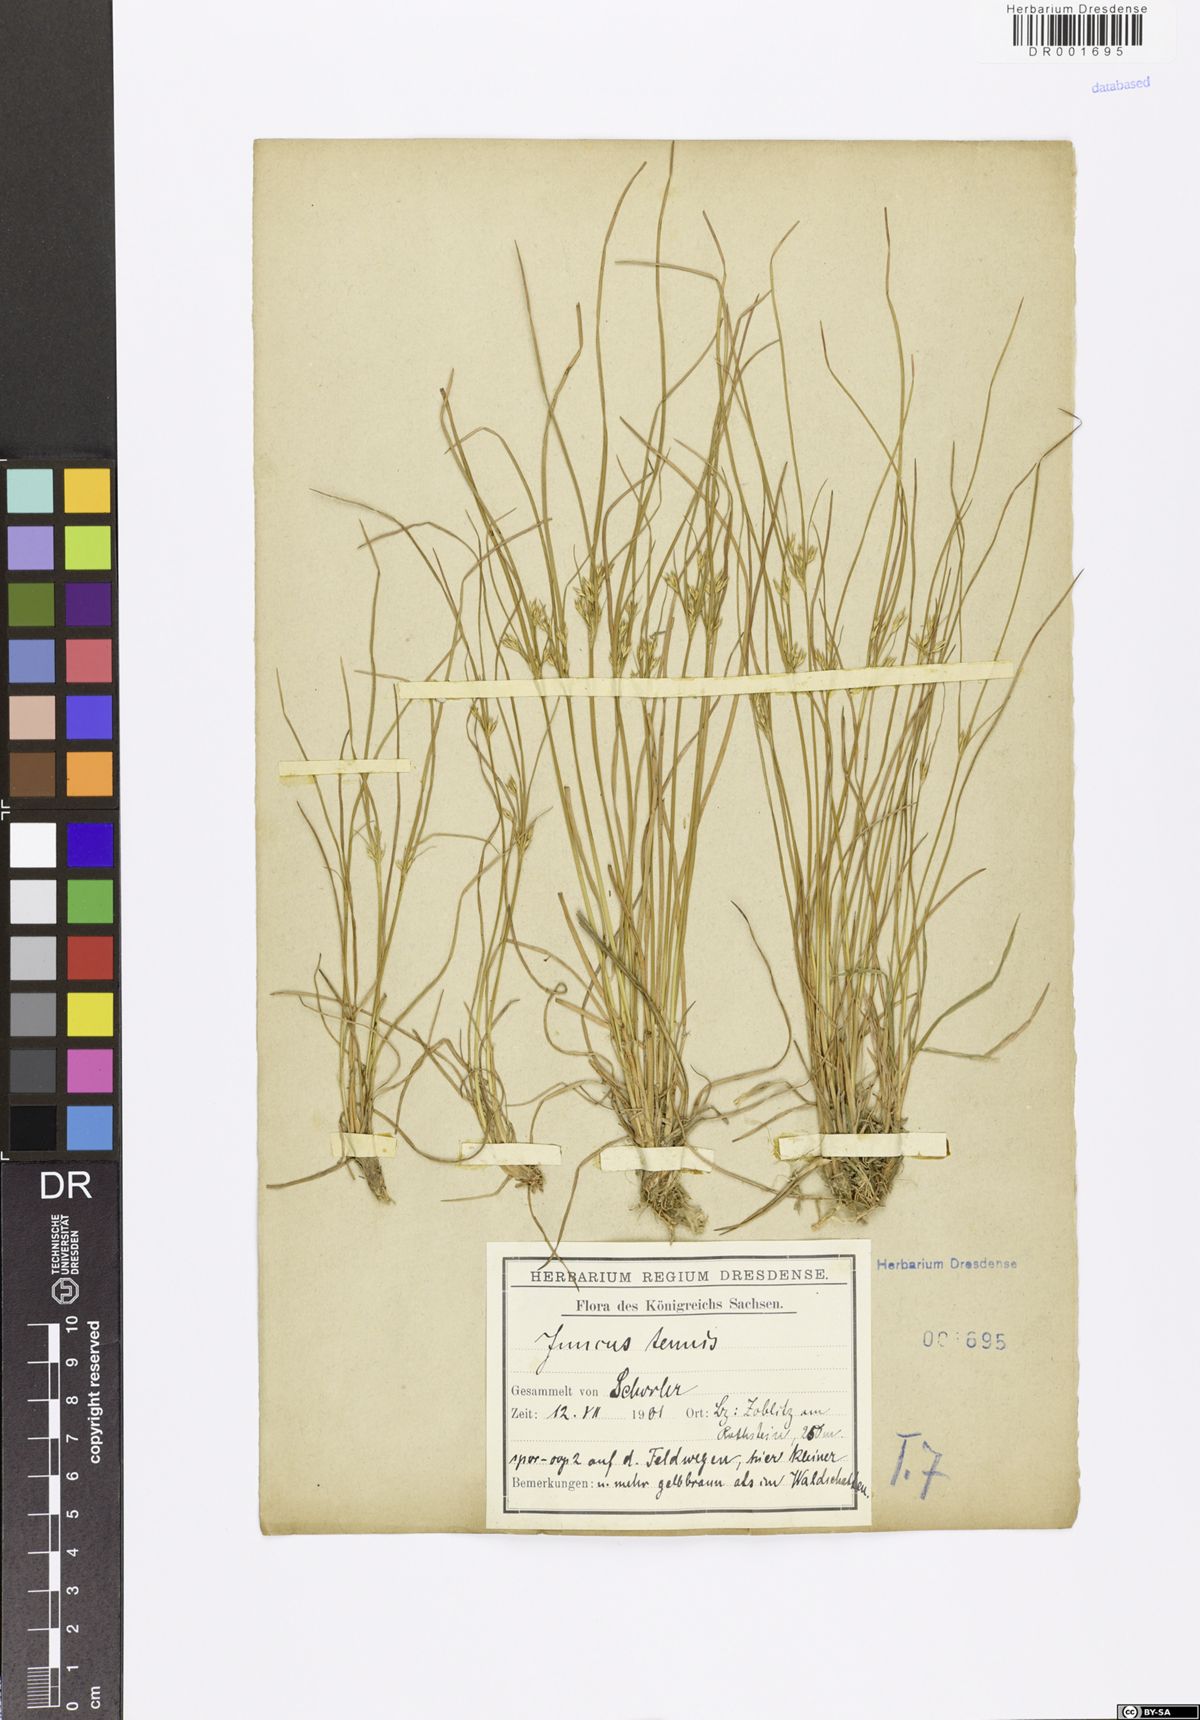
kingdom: Plantae
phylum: Tracheophyta
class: Liliopsida
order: Poales
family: Juncaceae
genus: Juncus
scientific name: Juncus tenuis
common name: Slender rush
